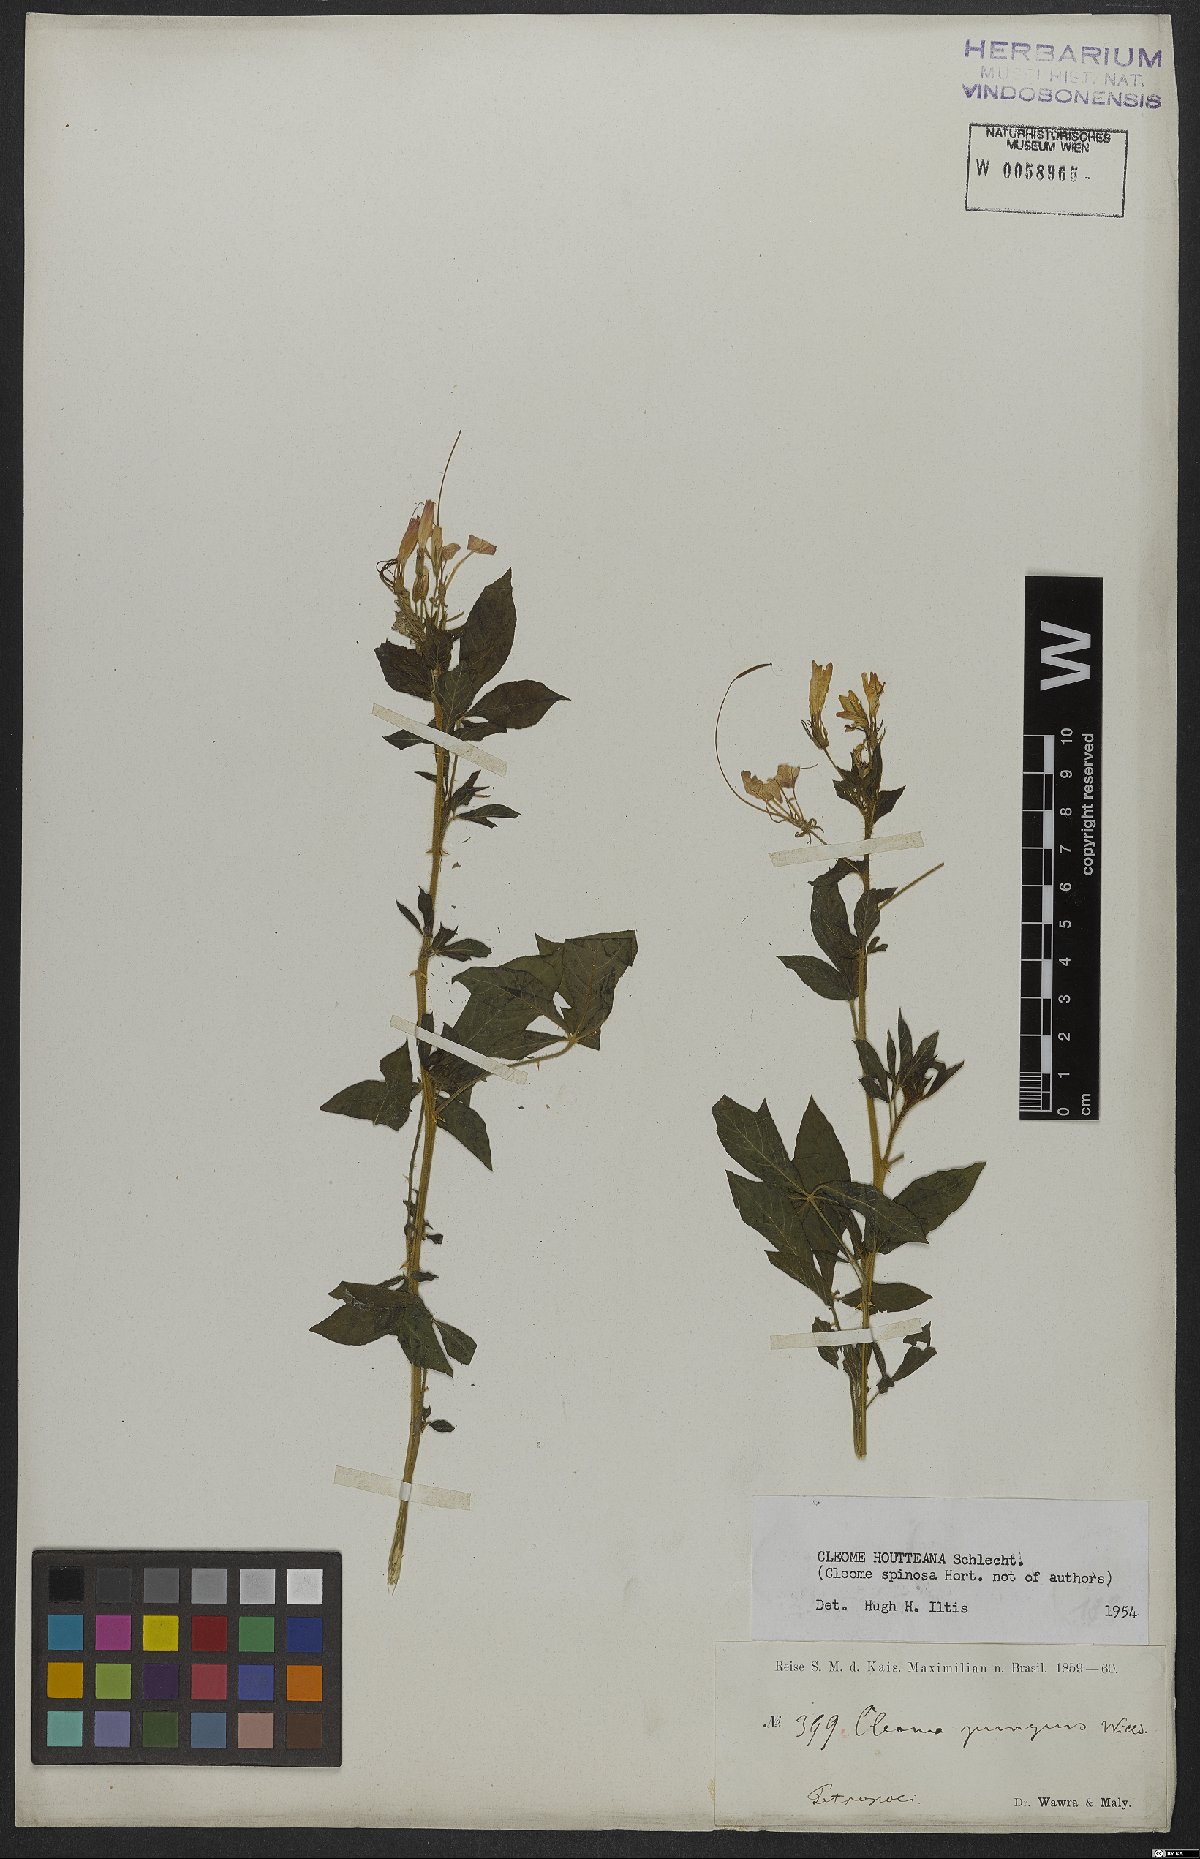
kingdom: Plantae
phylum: Tracheophyta
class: Magnoliopsida
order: Brassicales
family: Cleomaceae
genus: Tarenaya
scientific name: Tarenaya houtteana
